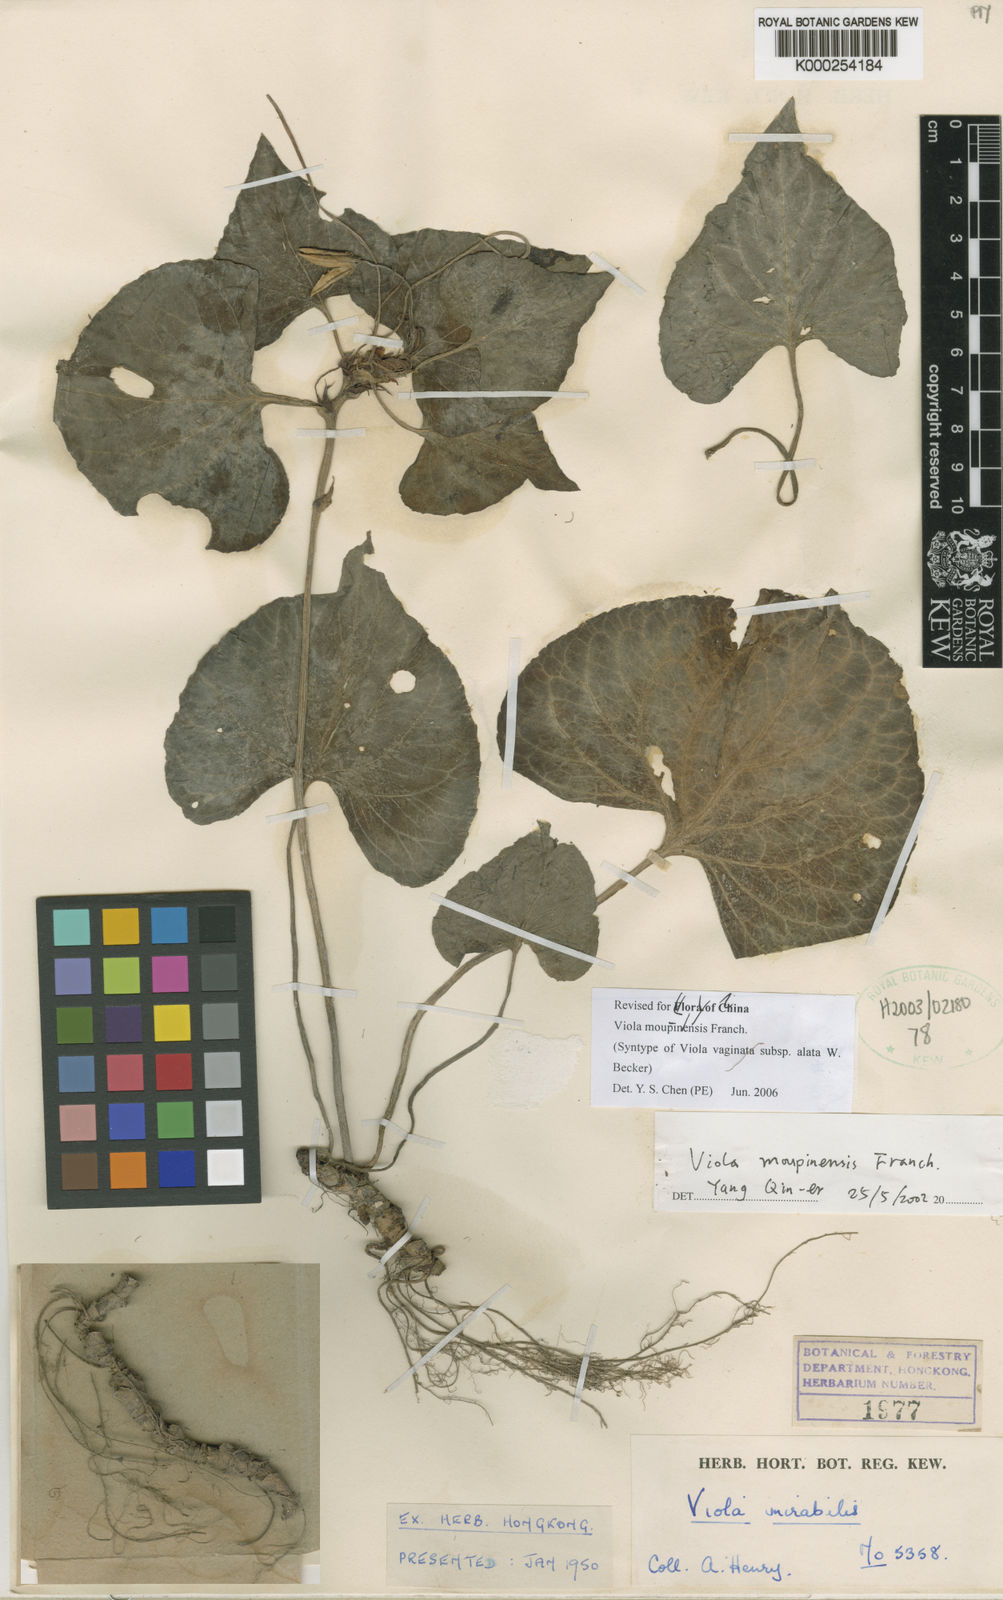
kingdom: Plantae
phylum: Tracheophyta
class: Magnoliopsida
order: Malpighiales
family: Violaceae
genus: Viola
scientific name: Viola moupinensis
